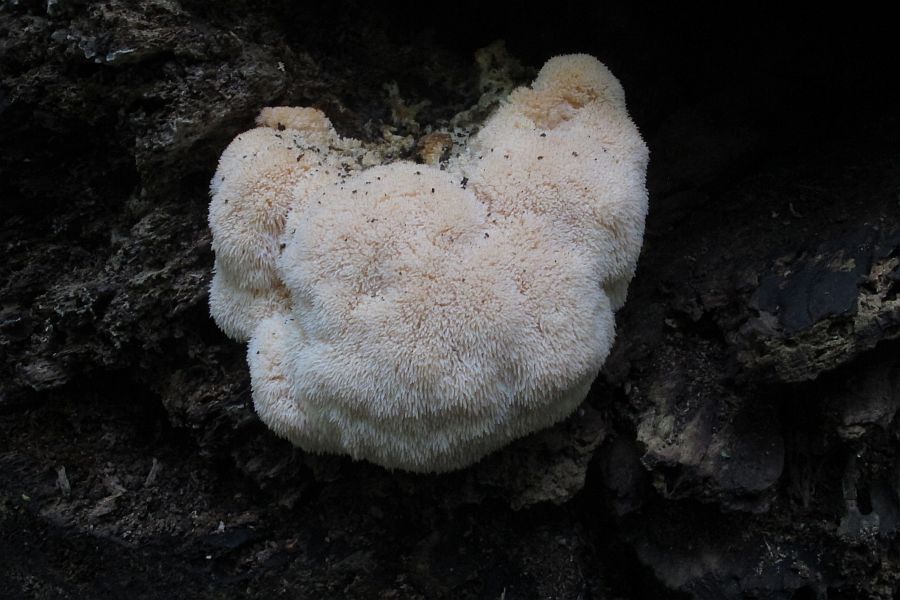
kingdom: Fungi
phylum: Basidiomycota
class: Agaricomycetes
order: Russulales
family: Hericiaceae
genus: Hericium
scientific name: Hericium erinaceus
